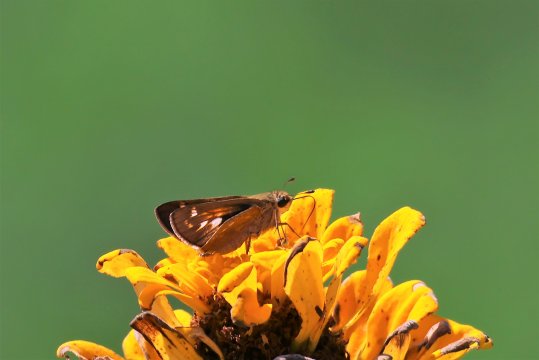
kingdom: Animalia
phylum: Arthropoda
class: Insecta
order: Lepidoptera
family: Hesperiidae
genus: Atalopedes
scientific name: Atalopedes campestris
